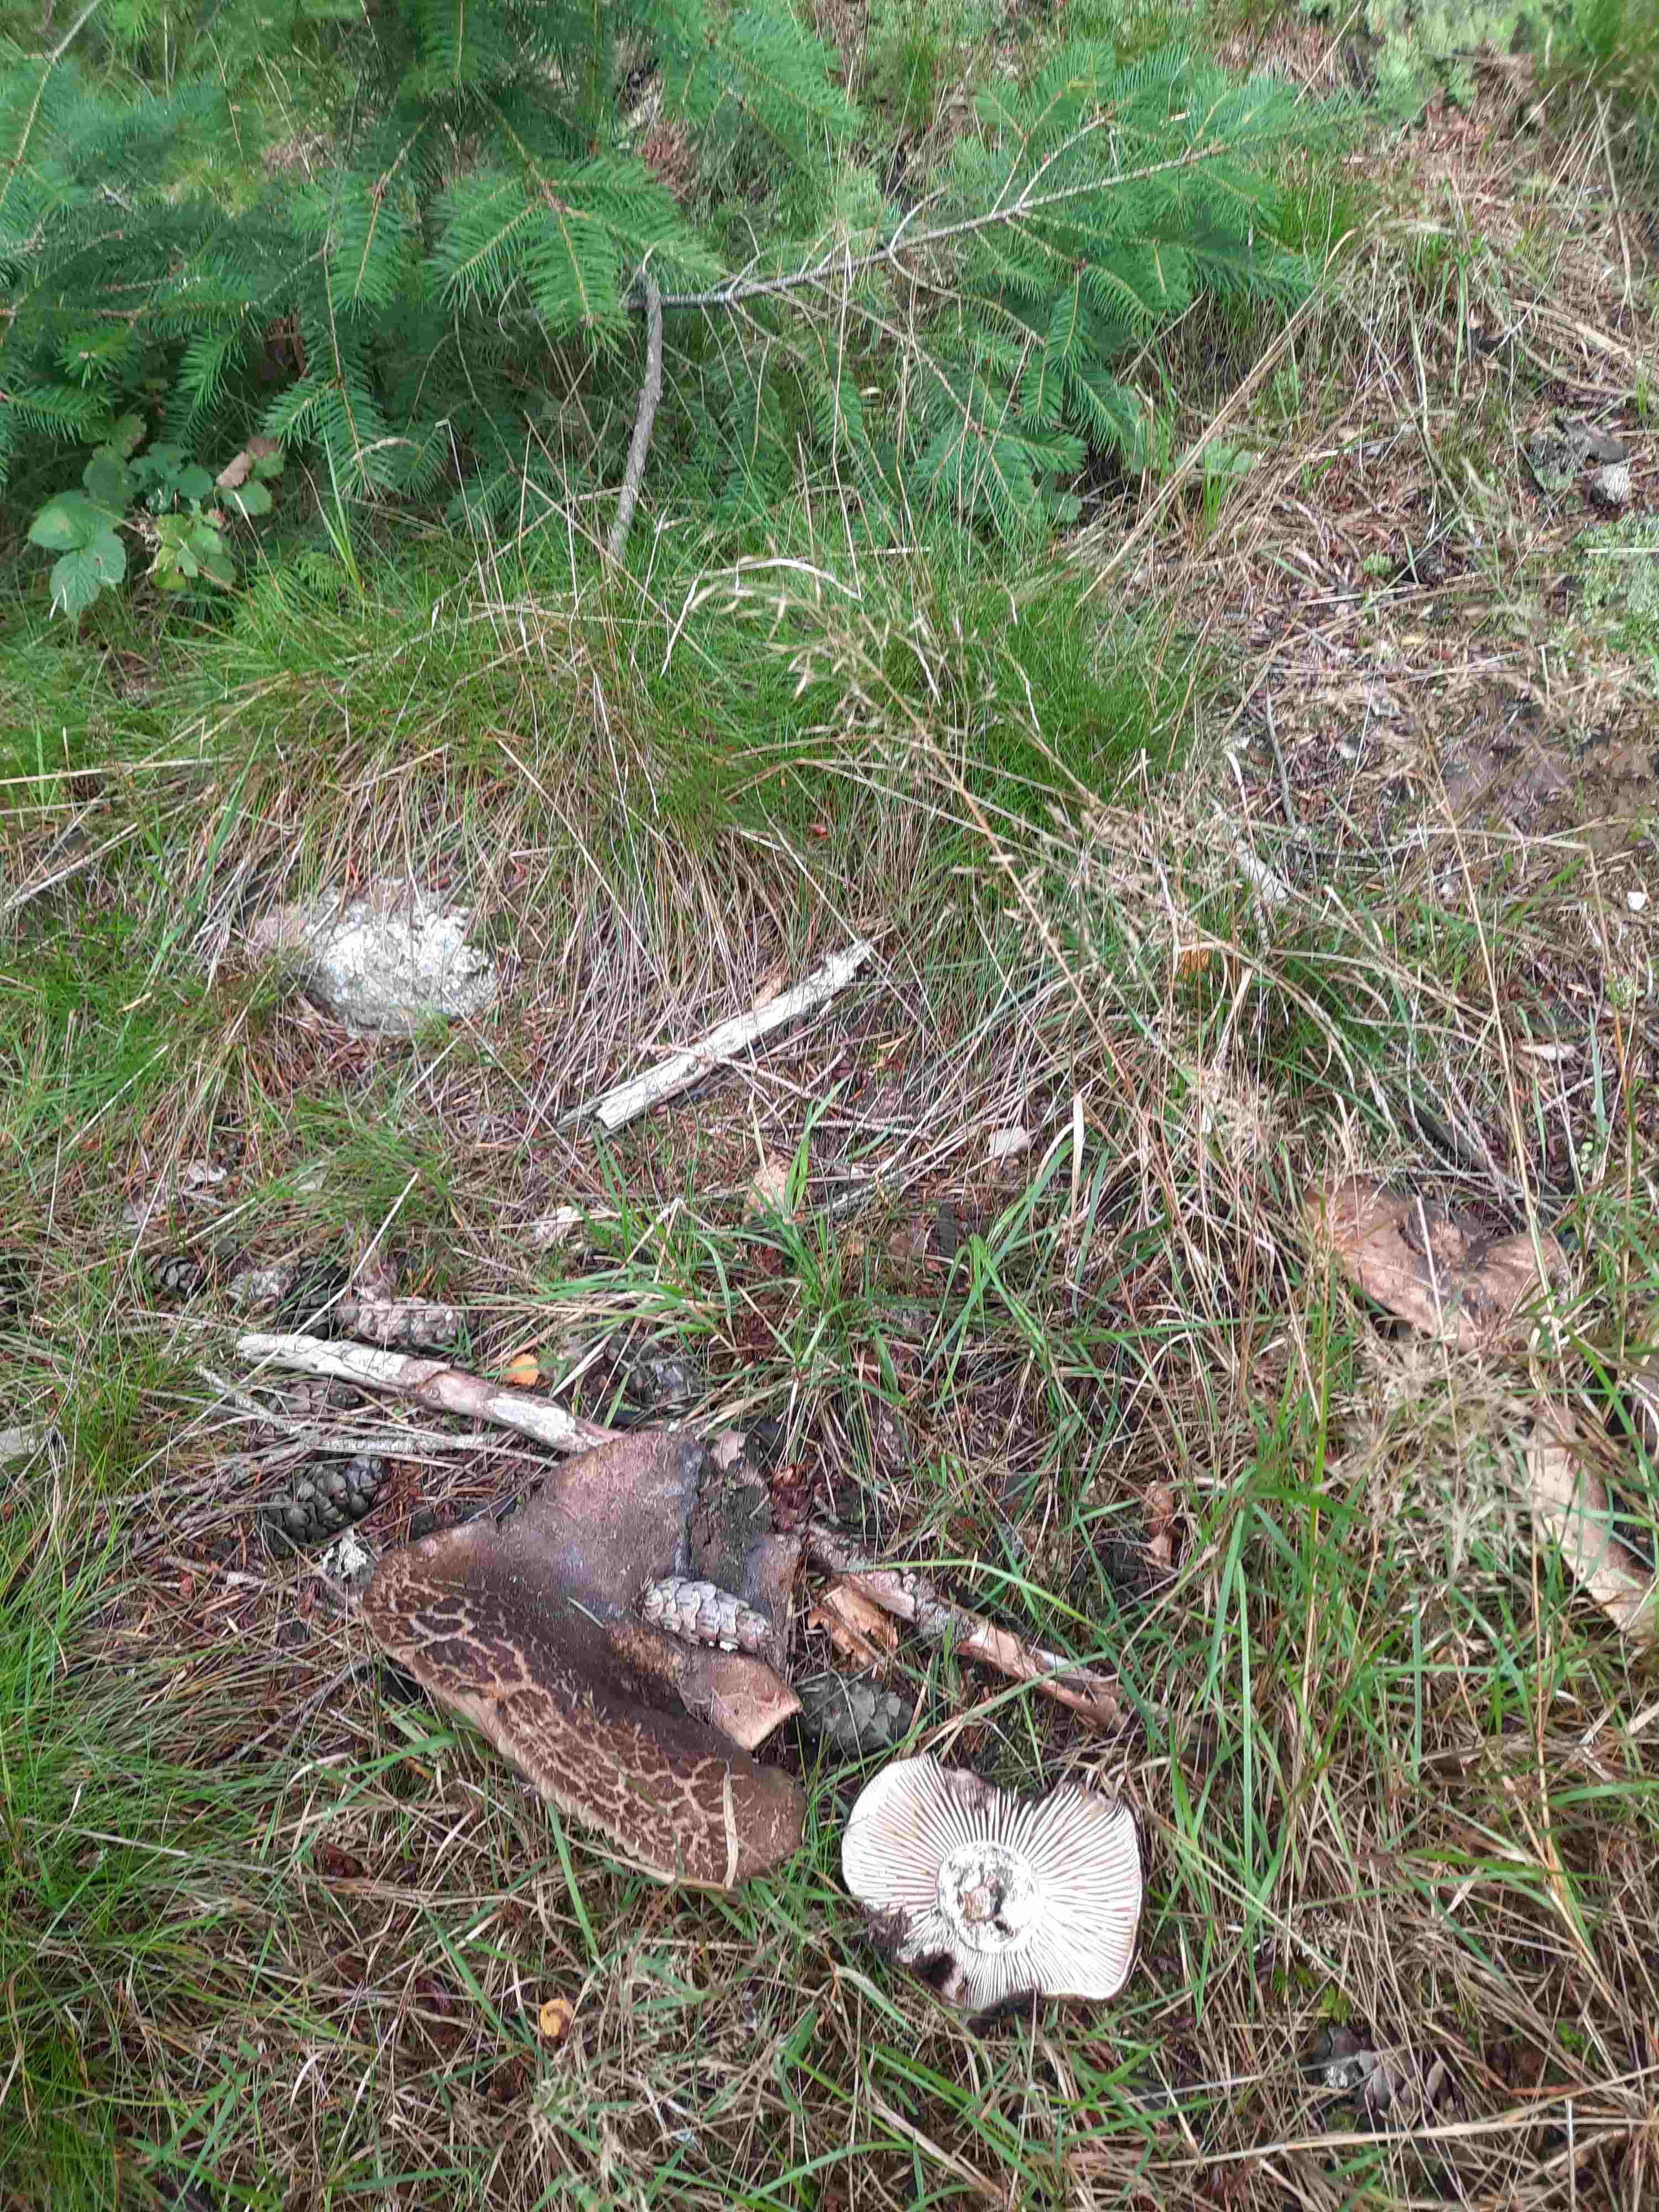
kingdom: Fungi
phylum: Basidiomycota
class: Agaricomycetes
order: Russulales
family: Russulaceae
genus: Russula
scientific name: Russula
